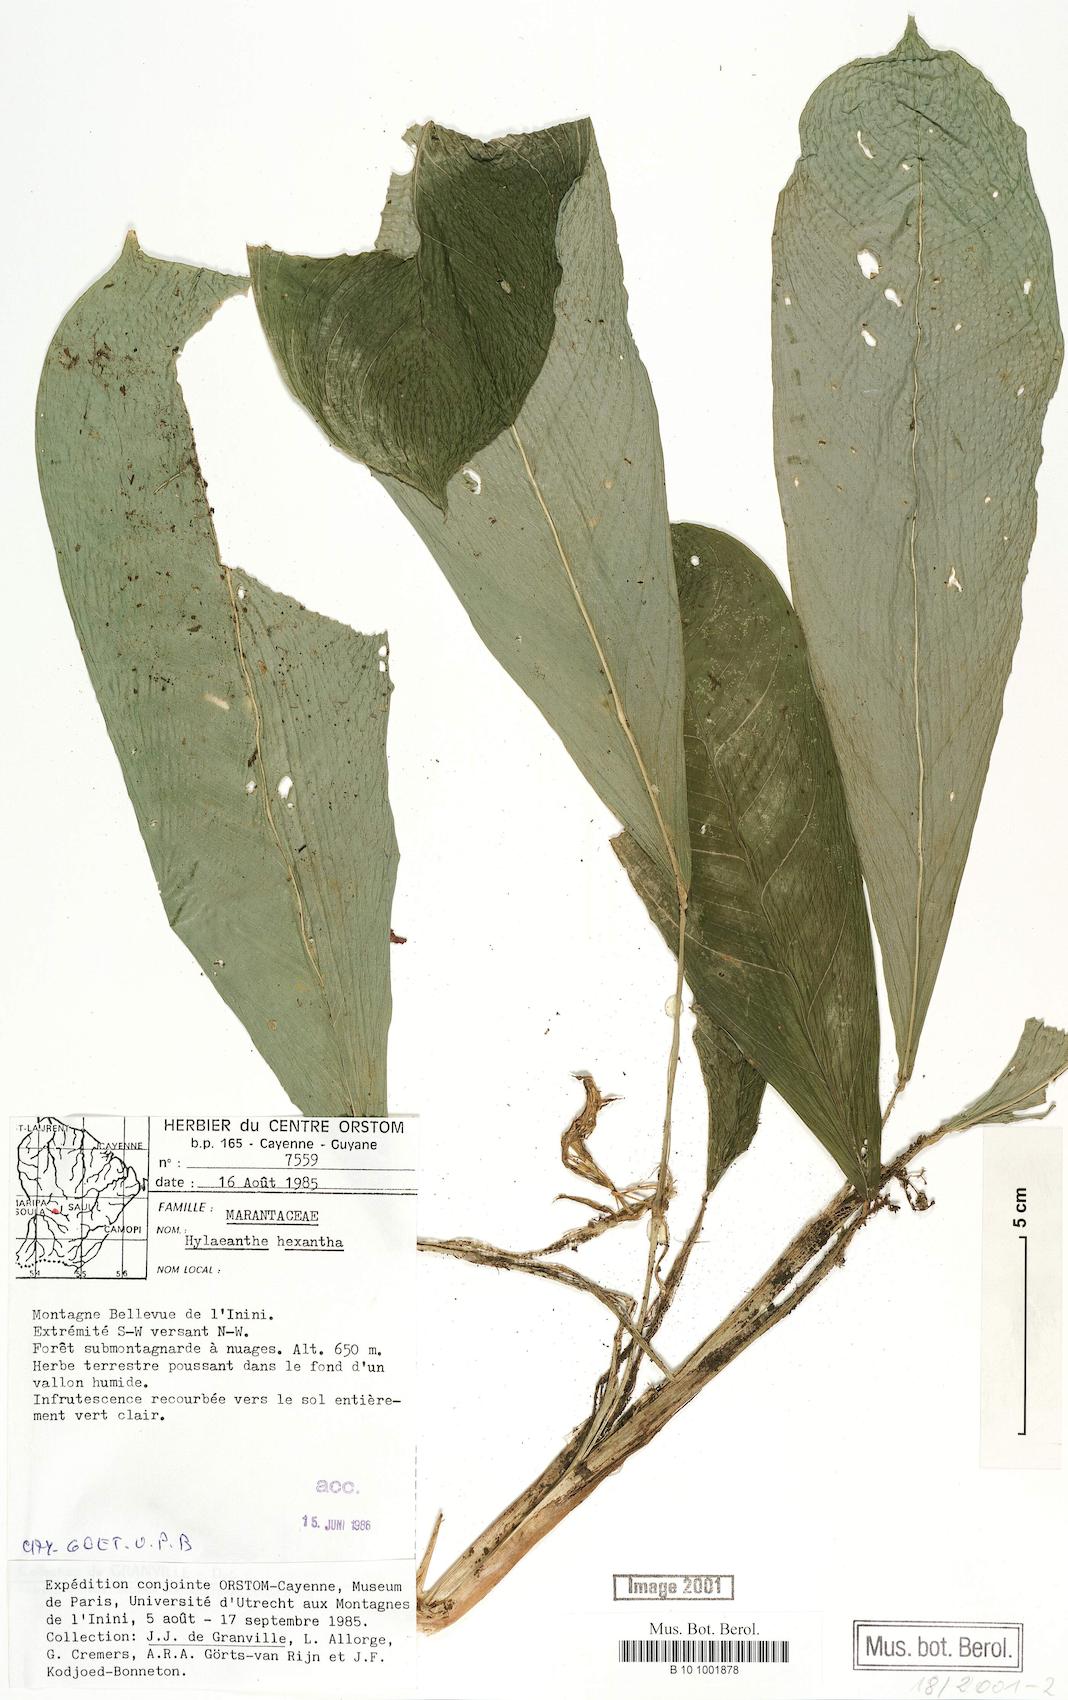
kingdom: Plantae
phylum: Tracheophyta
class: Liliopsida
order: Zingiberales
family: Marantaceae
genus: Hylaeanthe
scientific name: Hylaeanthe hexantha
